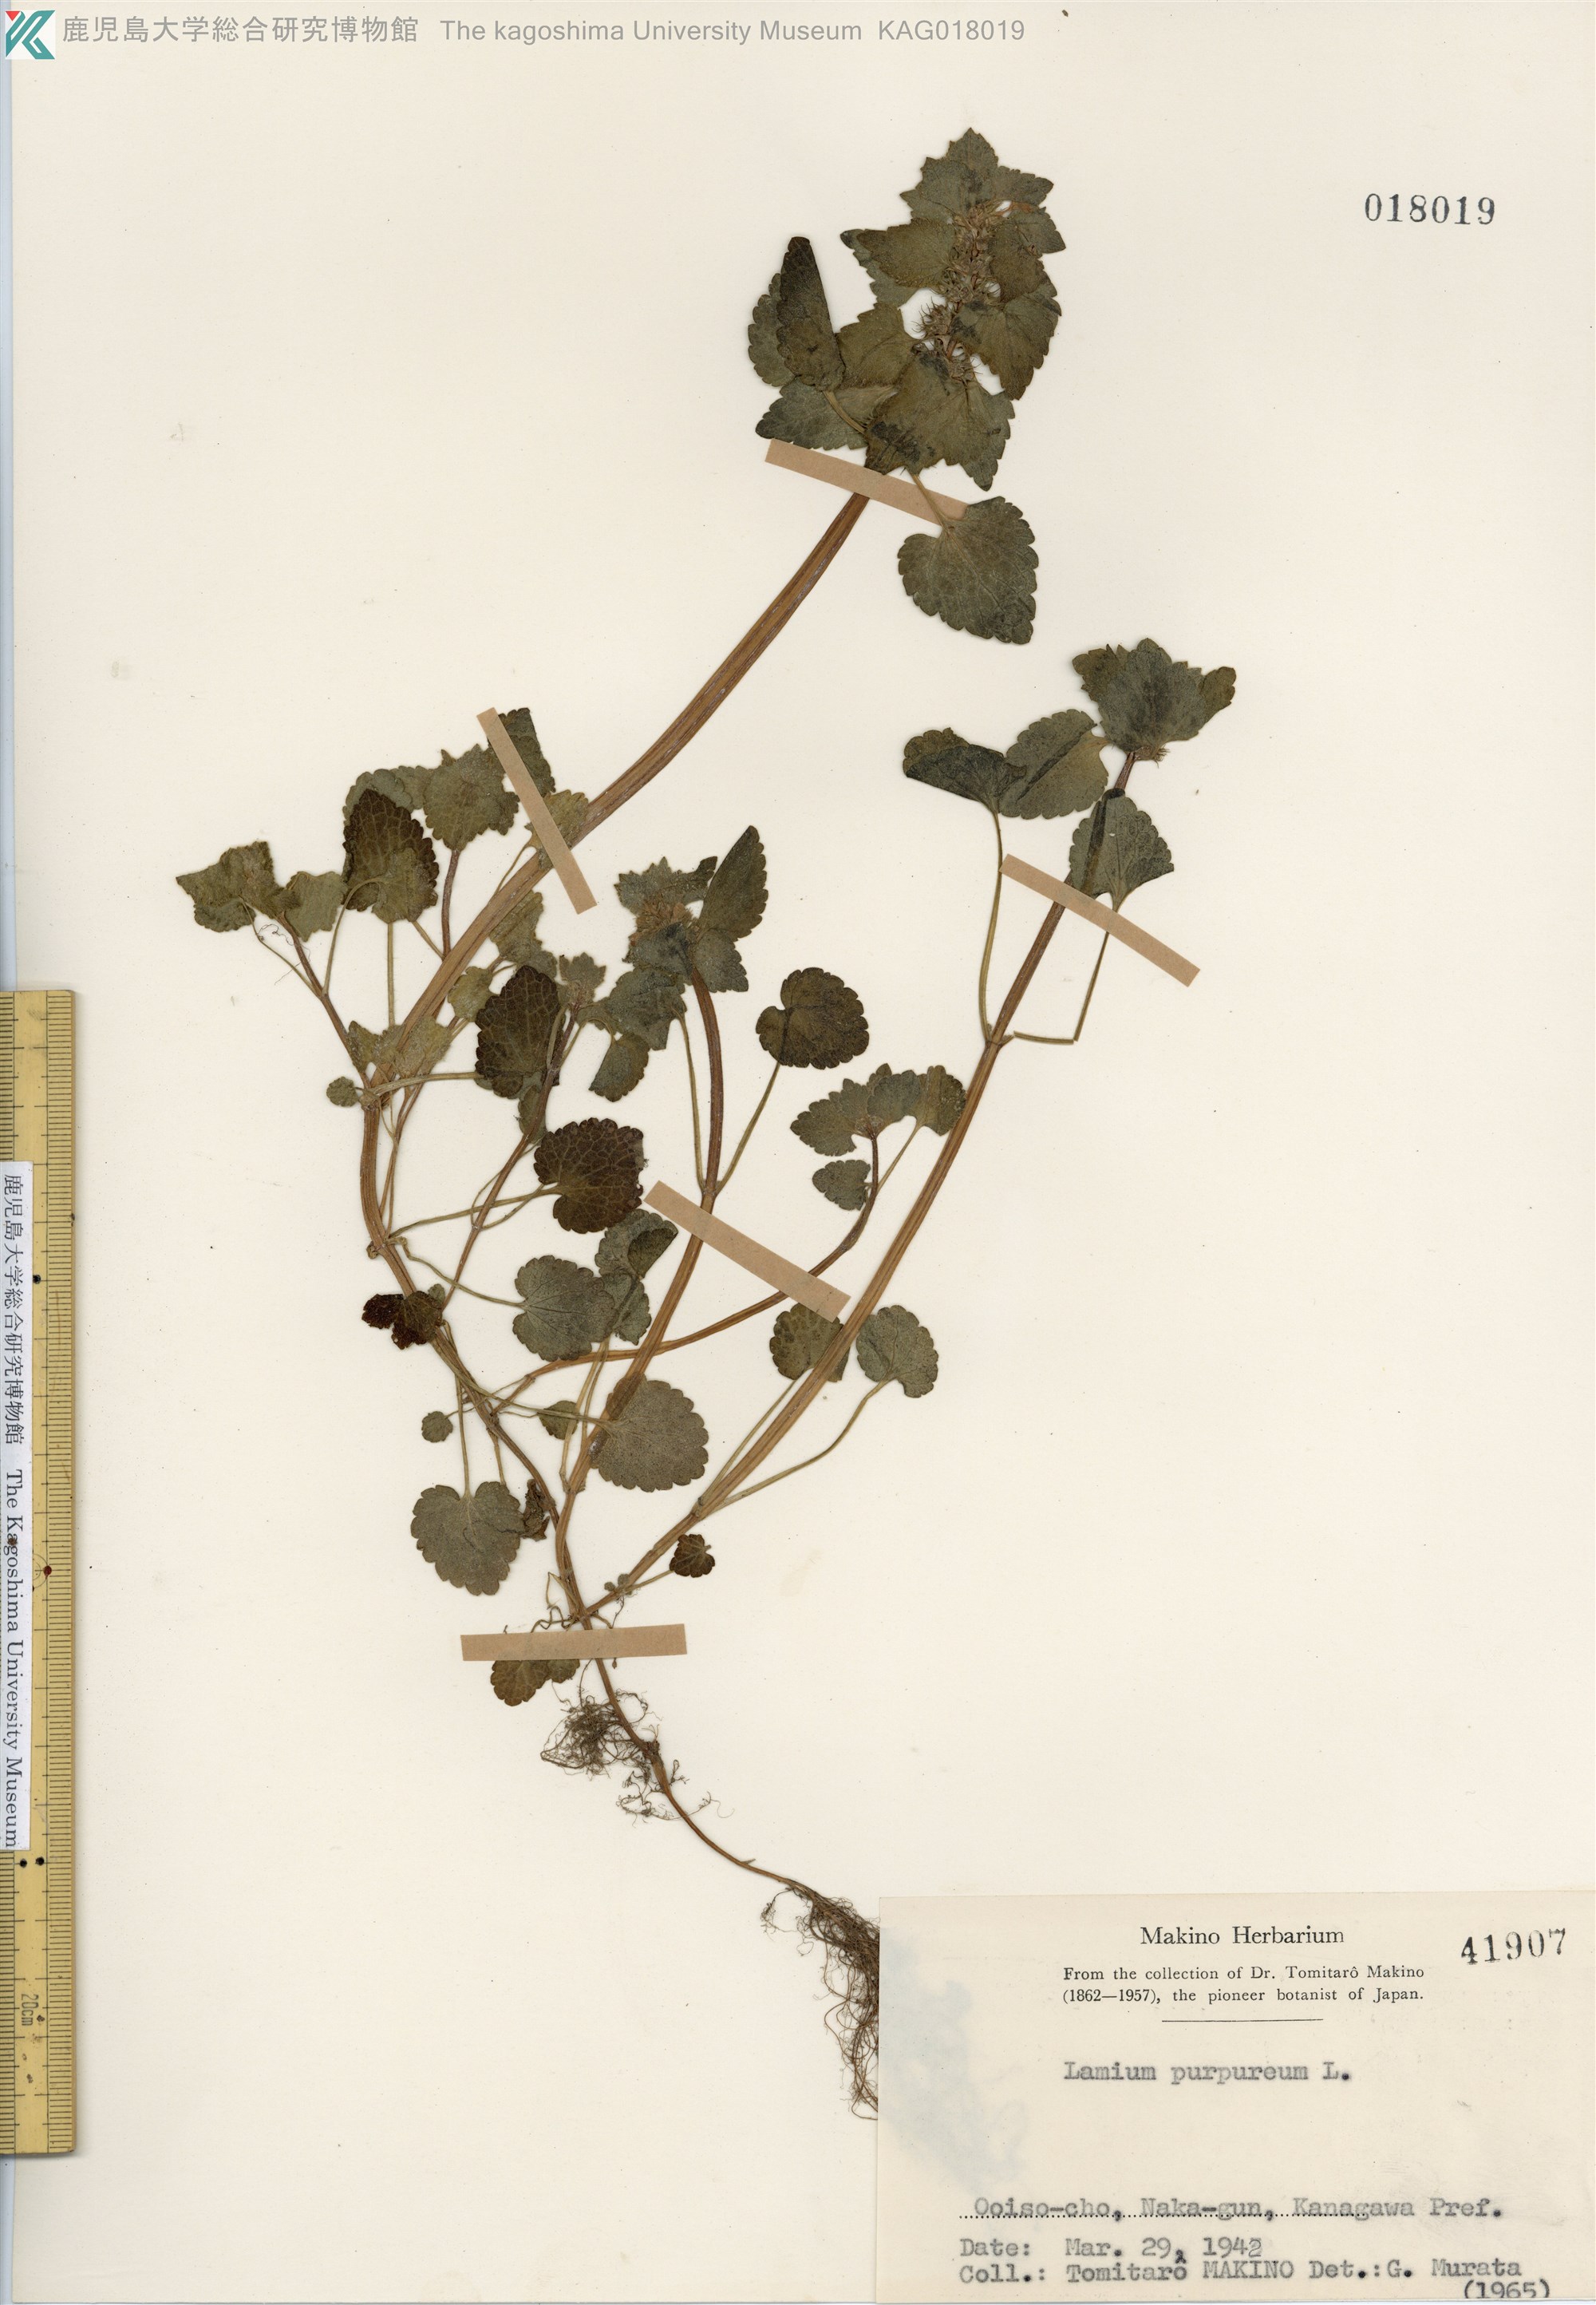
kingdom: Plantae
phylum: Tracheophyta
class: Magnoliopsida
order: Lamiales
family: Lamiaceae
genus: Lamium
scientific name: Lamium purpureum
